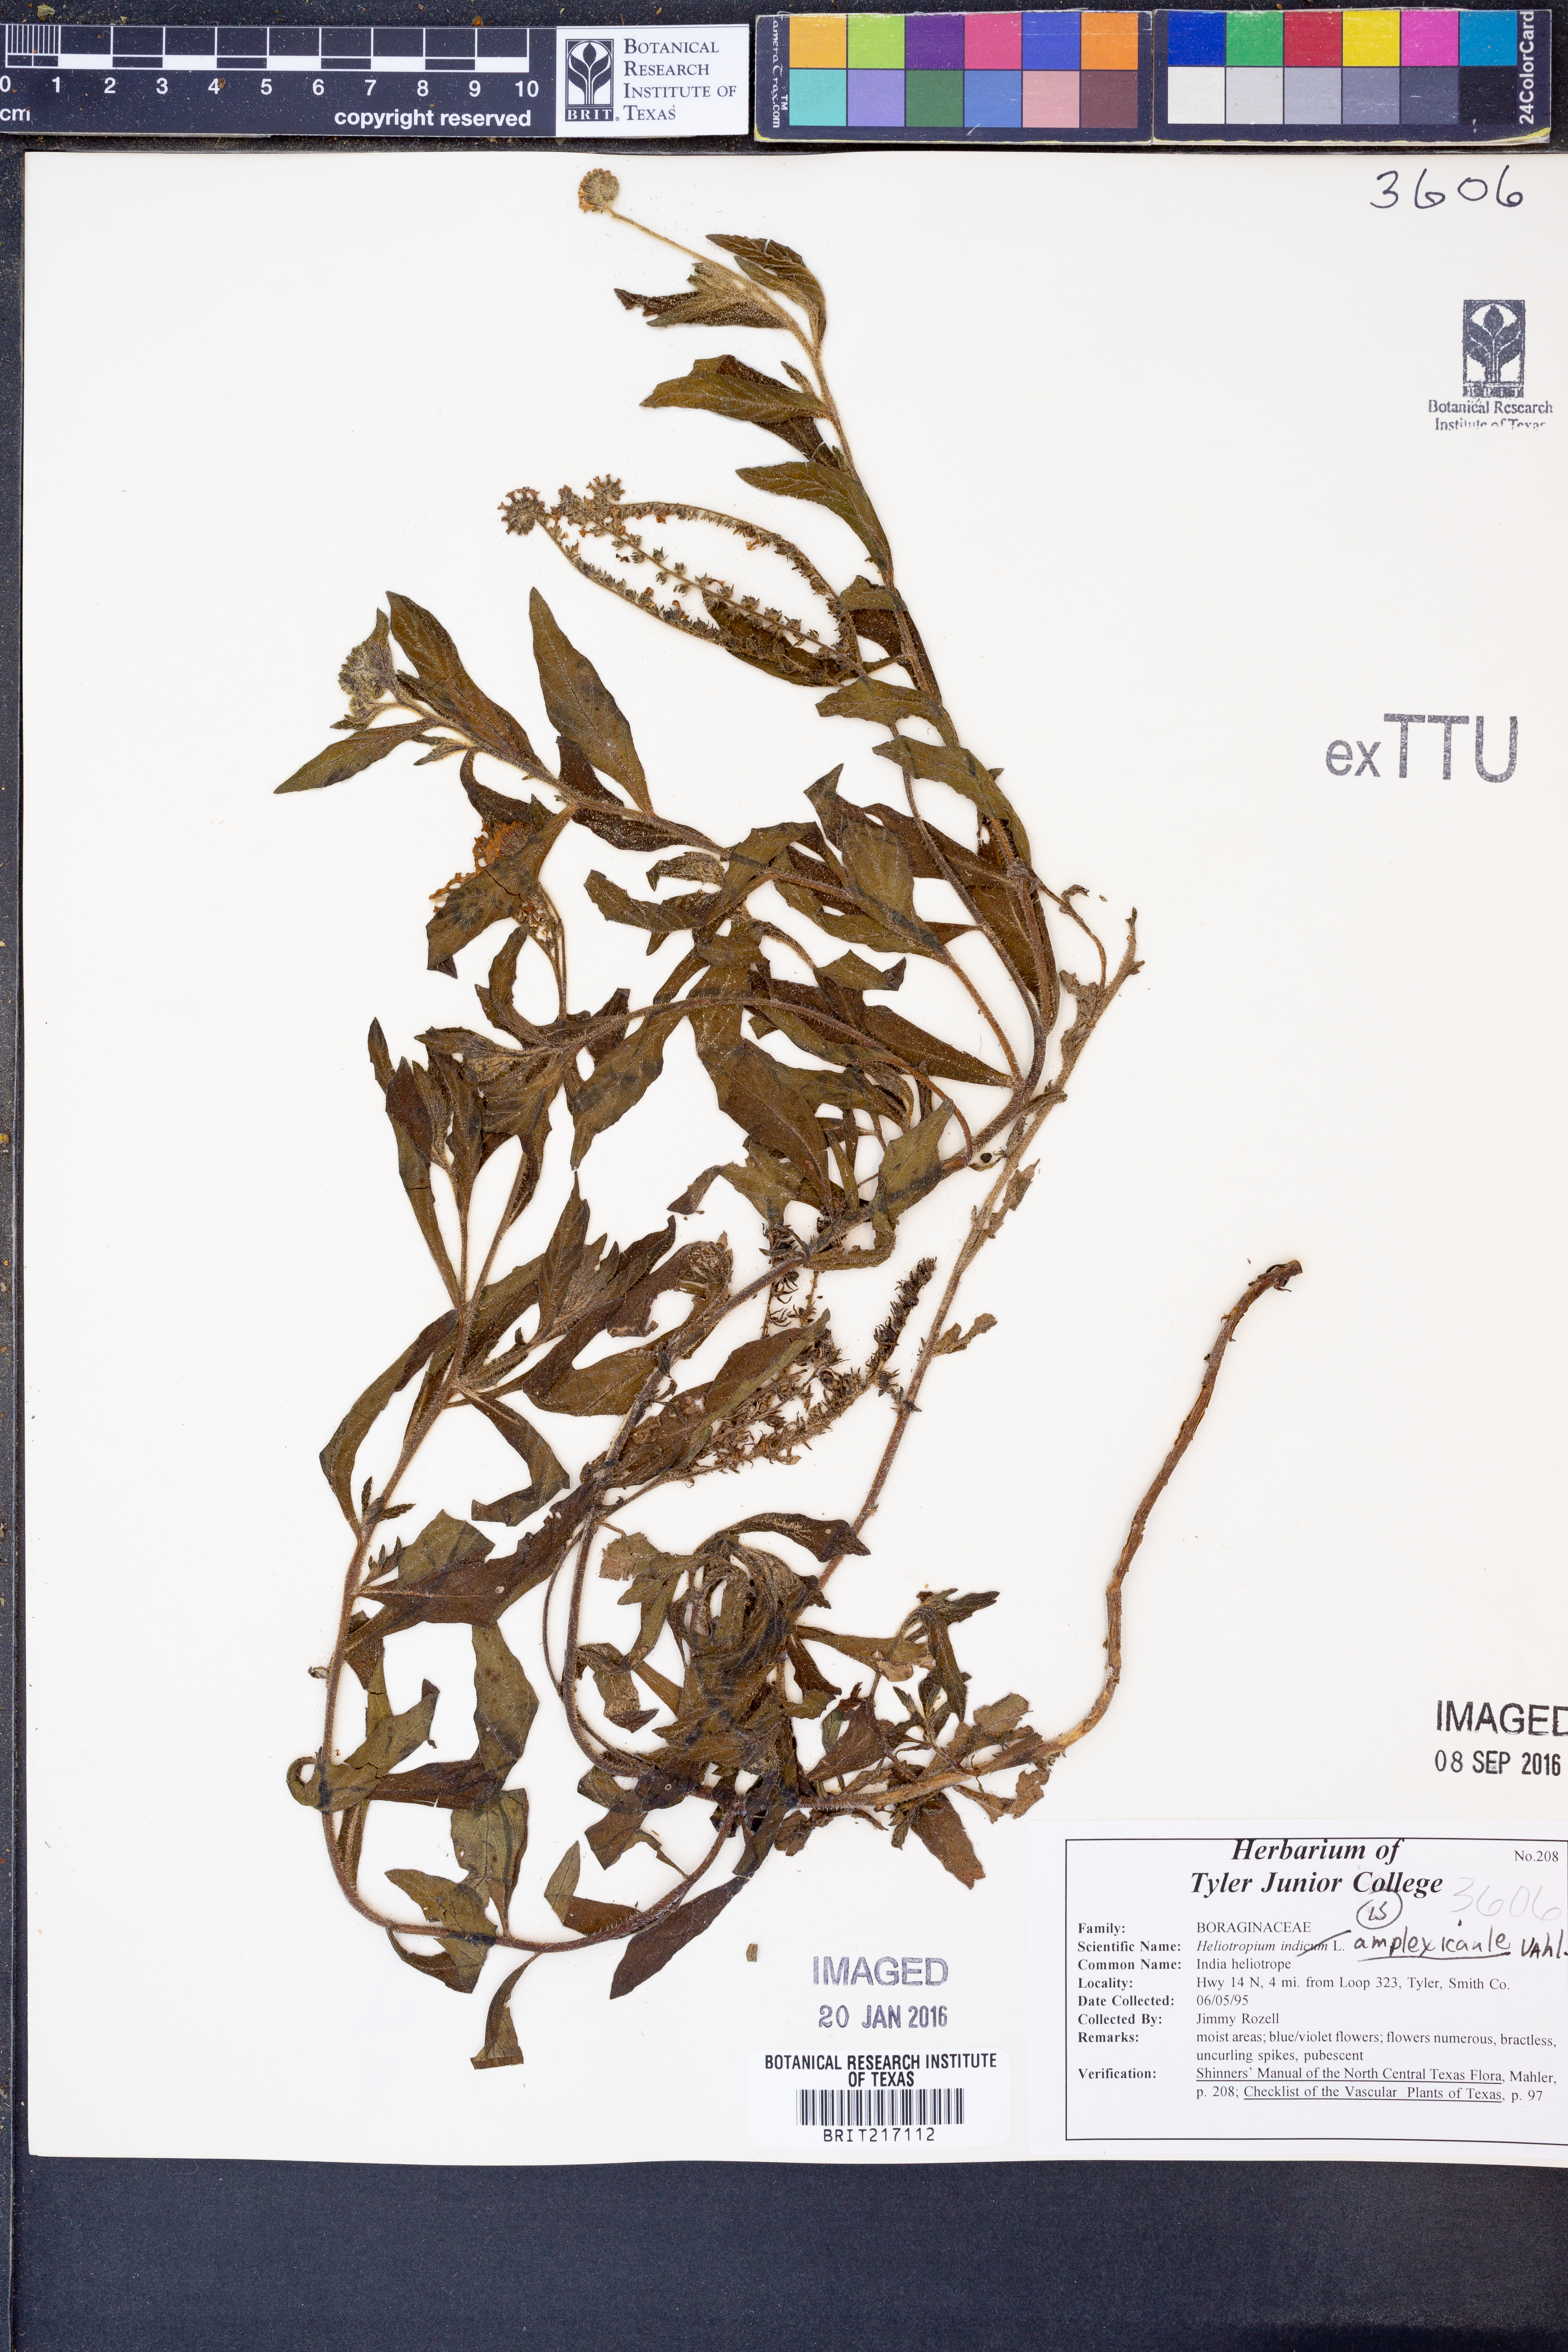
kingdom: Plantae
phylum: Tracheophyta
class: Magnoliopsida
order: Boraginales
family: Heliotropiaceae
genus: Heliotropium
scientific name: Heliotropium amplexicaule
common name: Clasping heliotrope
